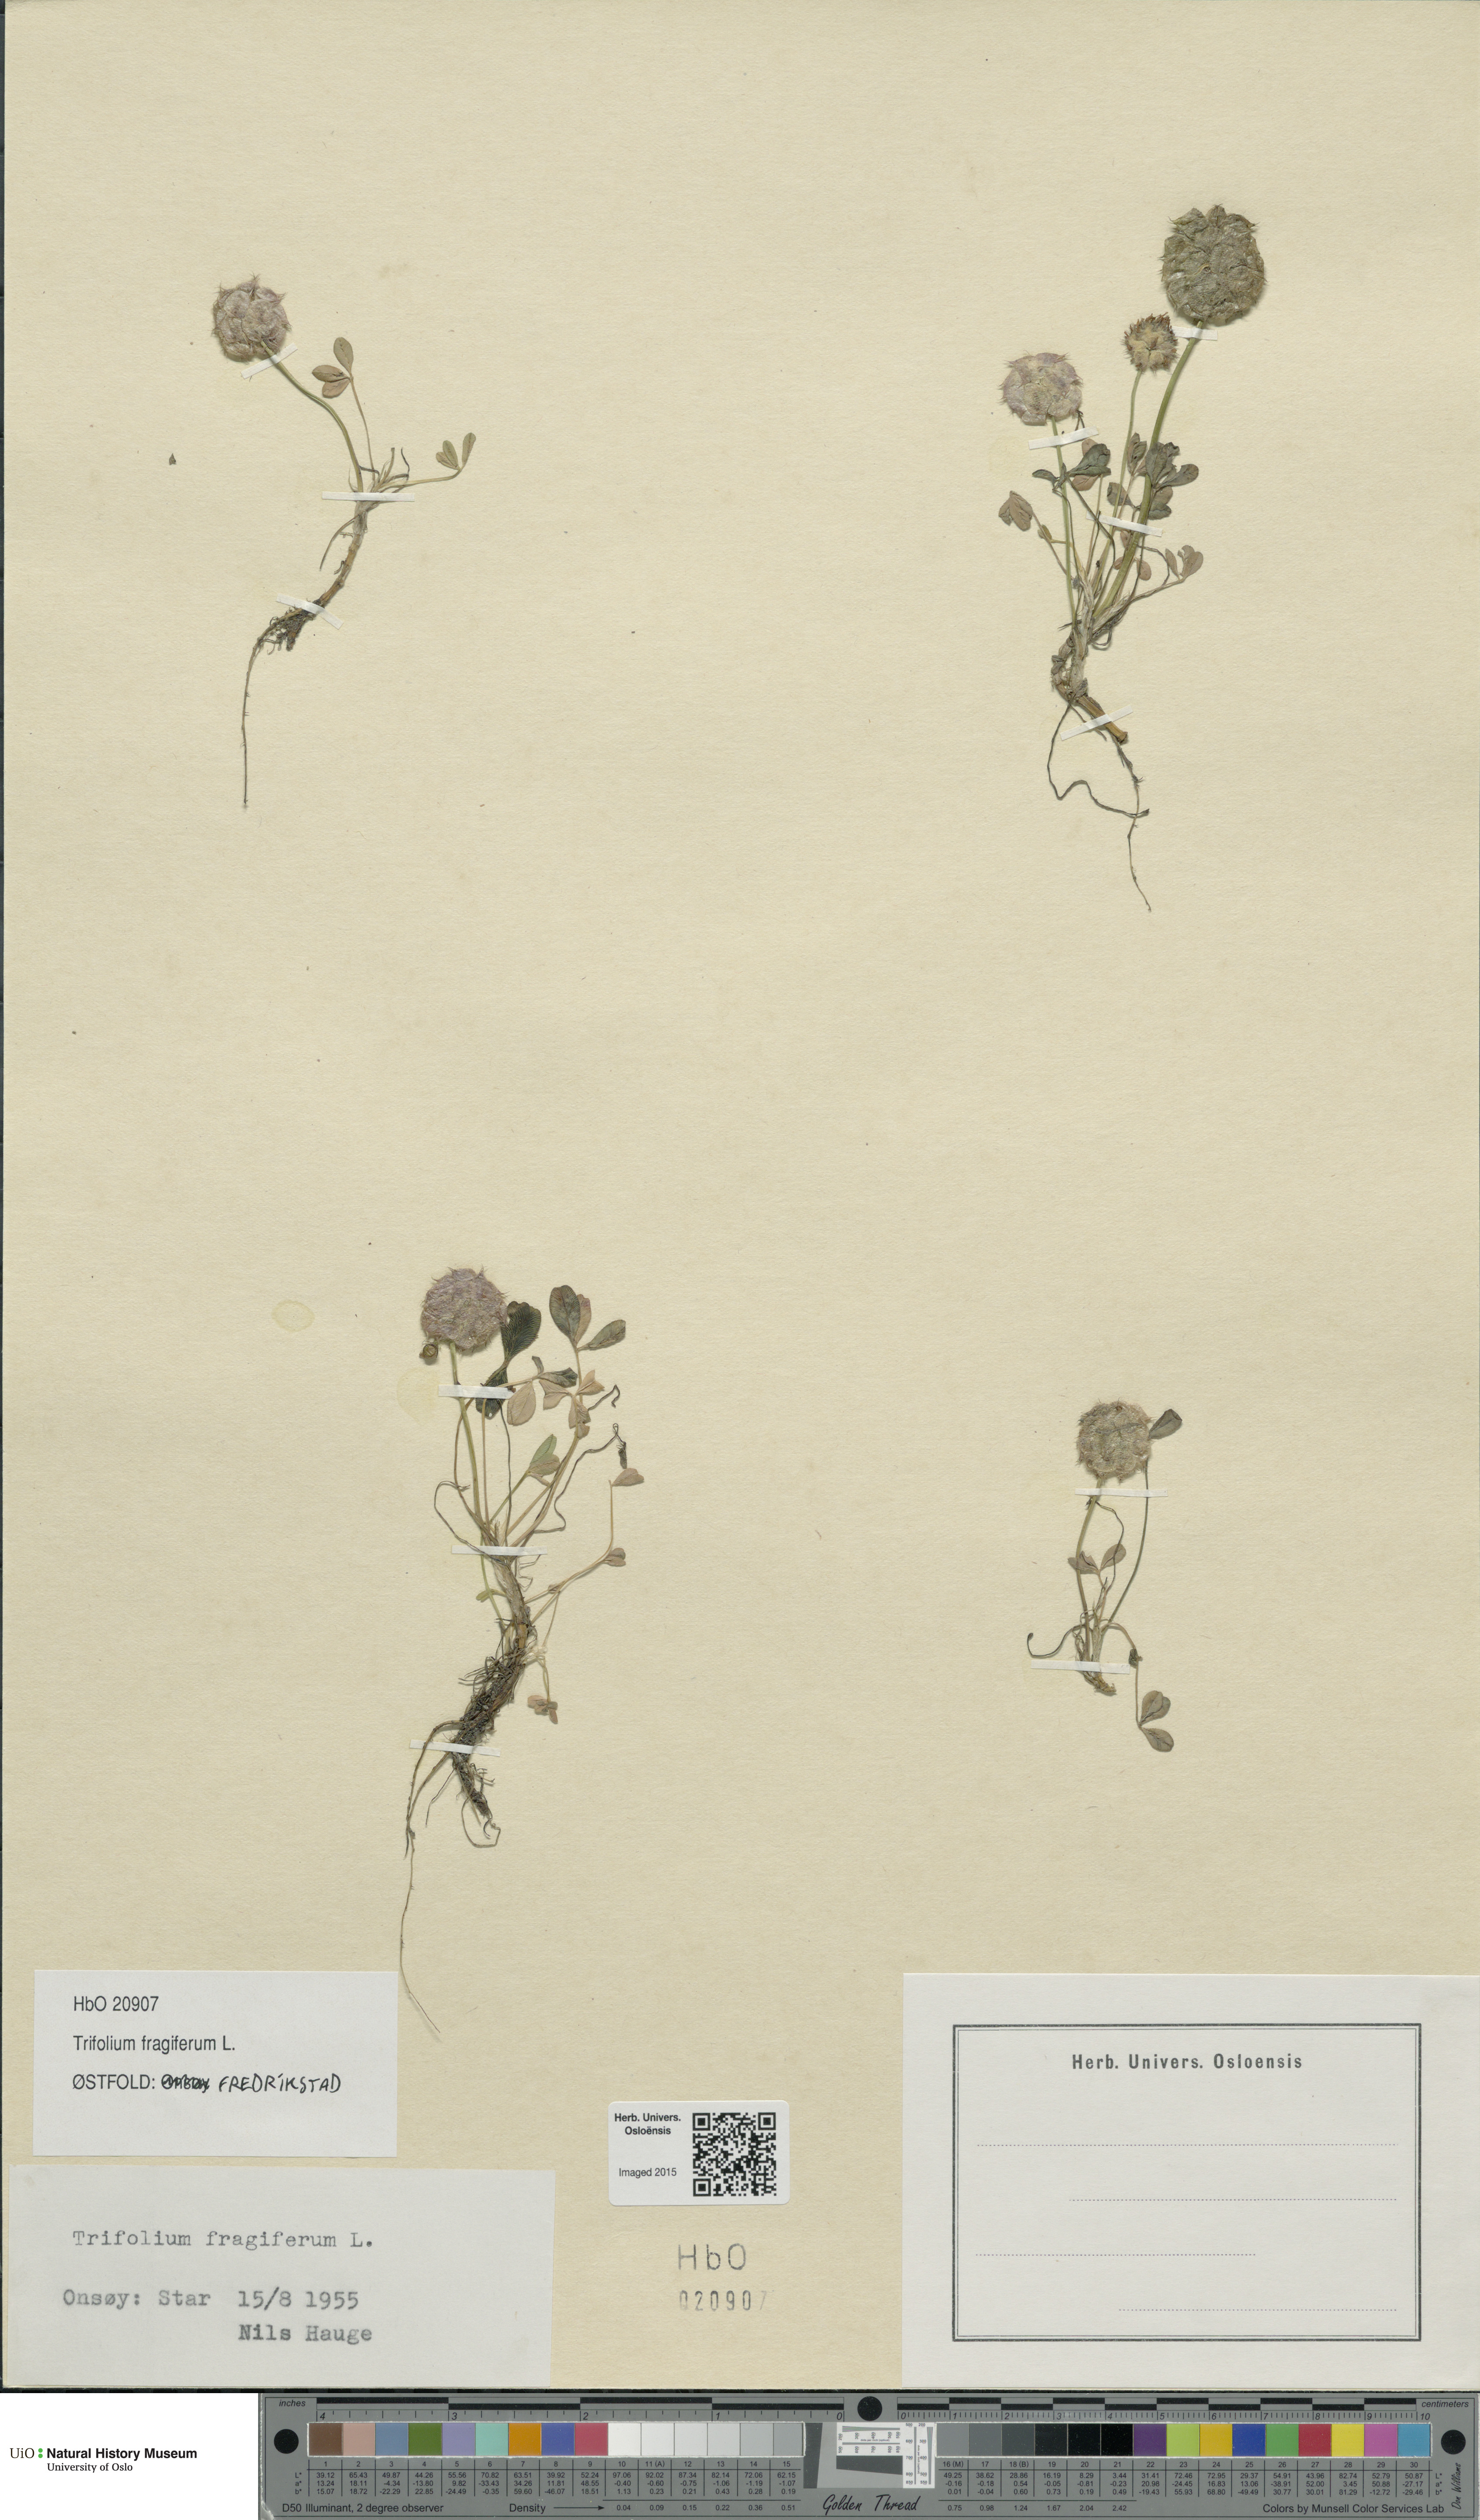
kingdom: Plantae
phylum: Tracheophyta
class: Magnoliopsida
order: Fabales
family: Fabaceae
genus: Trifolium
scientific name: Trifolium fragiferum
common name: Strawberry clover
